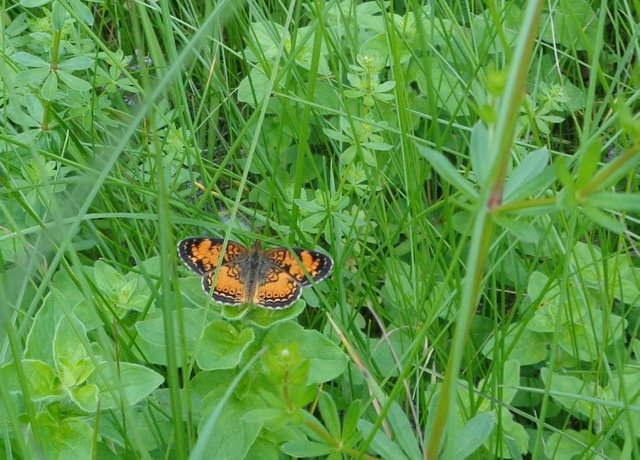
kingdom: Animalia
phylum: Arthropoda
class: Insecta
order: Lepidoptera
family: Nymphalidae
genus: Phyciodes
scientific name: Phyciodes tharos
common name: Pearl Crescent
